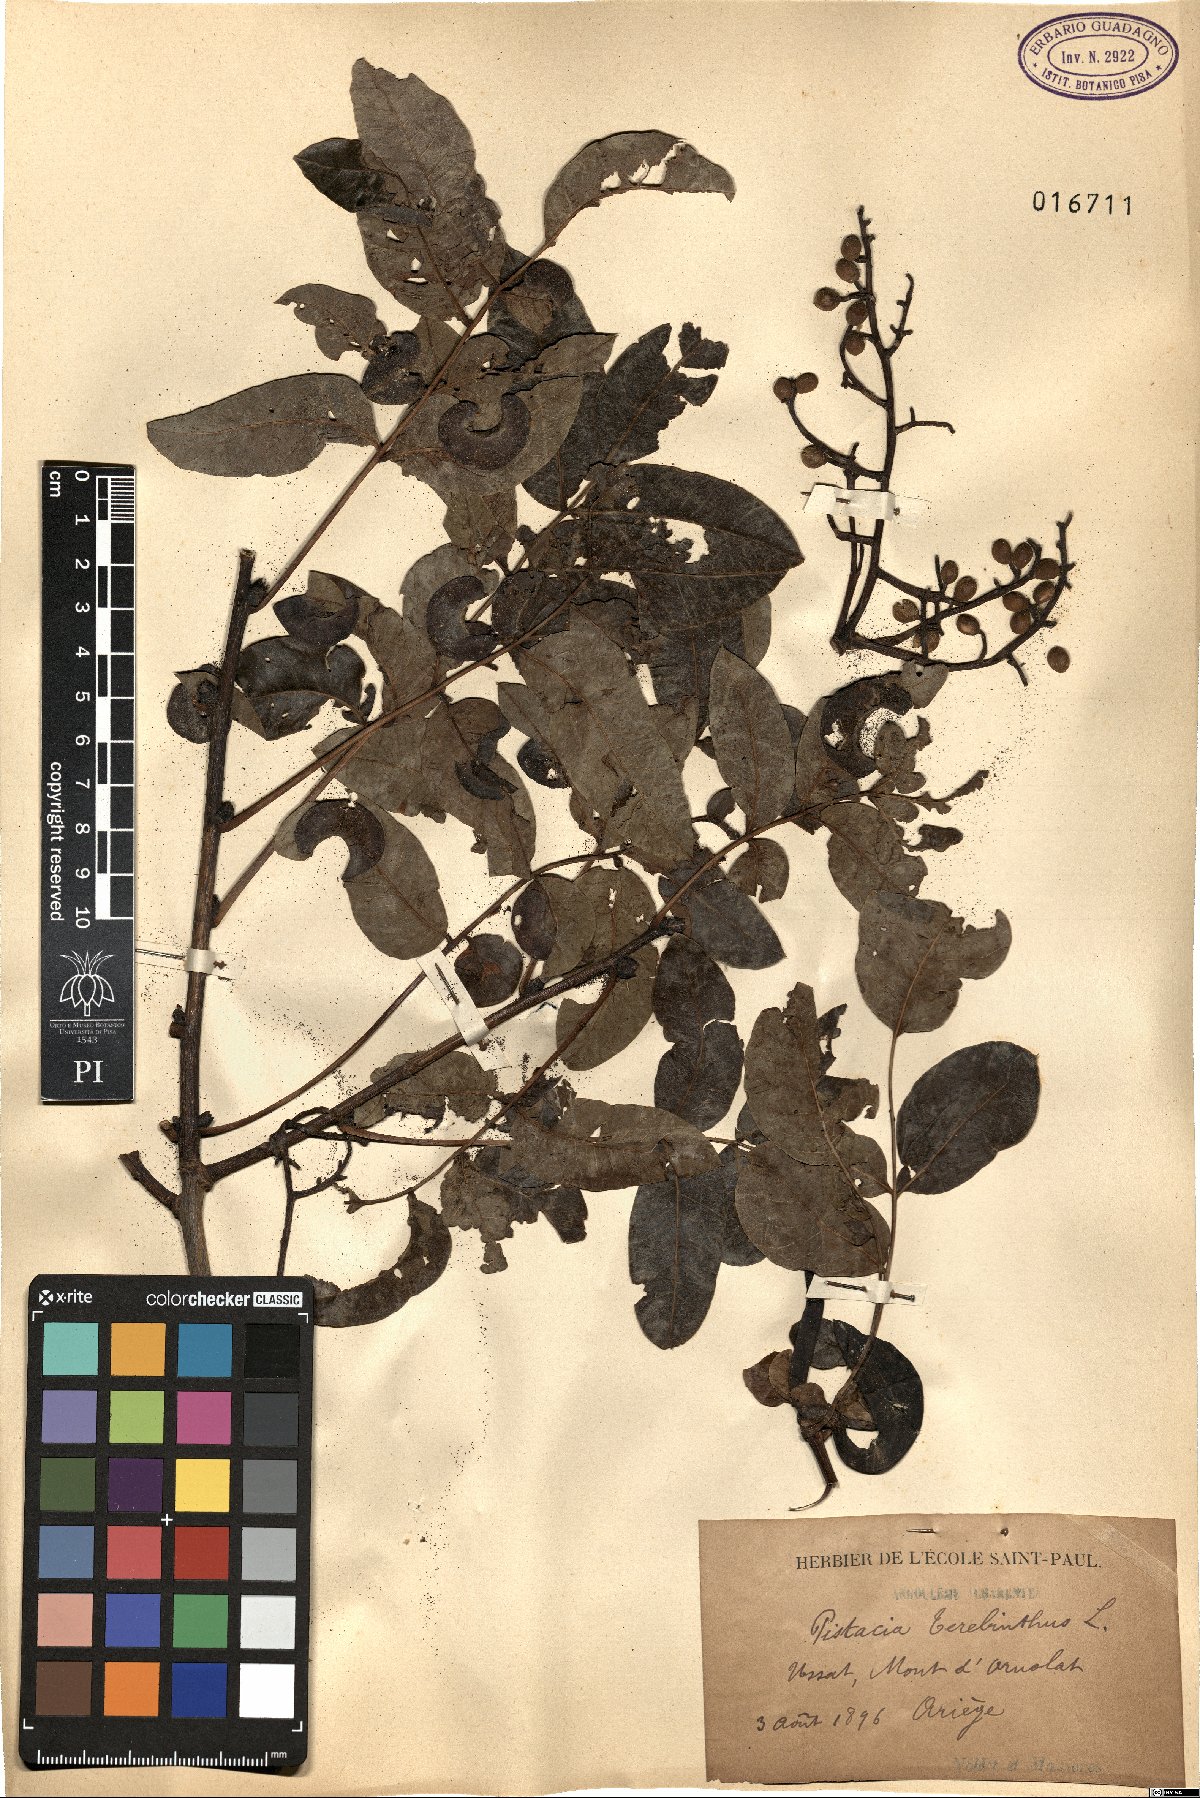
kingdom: Plantae
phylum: Tracheophyta
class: Magnoliopsida
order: Sapindales
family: Anacardiaceae
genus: Pistacia
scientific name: Pistacia terebinthus
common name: Terebinth
